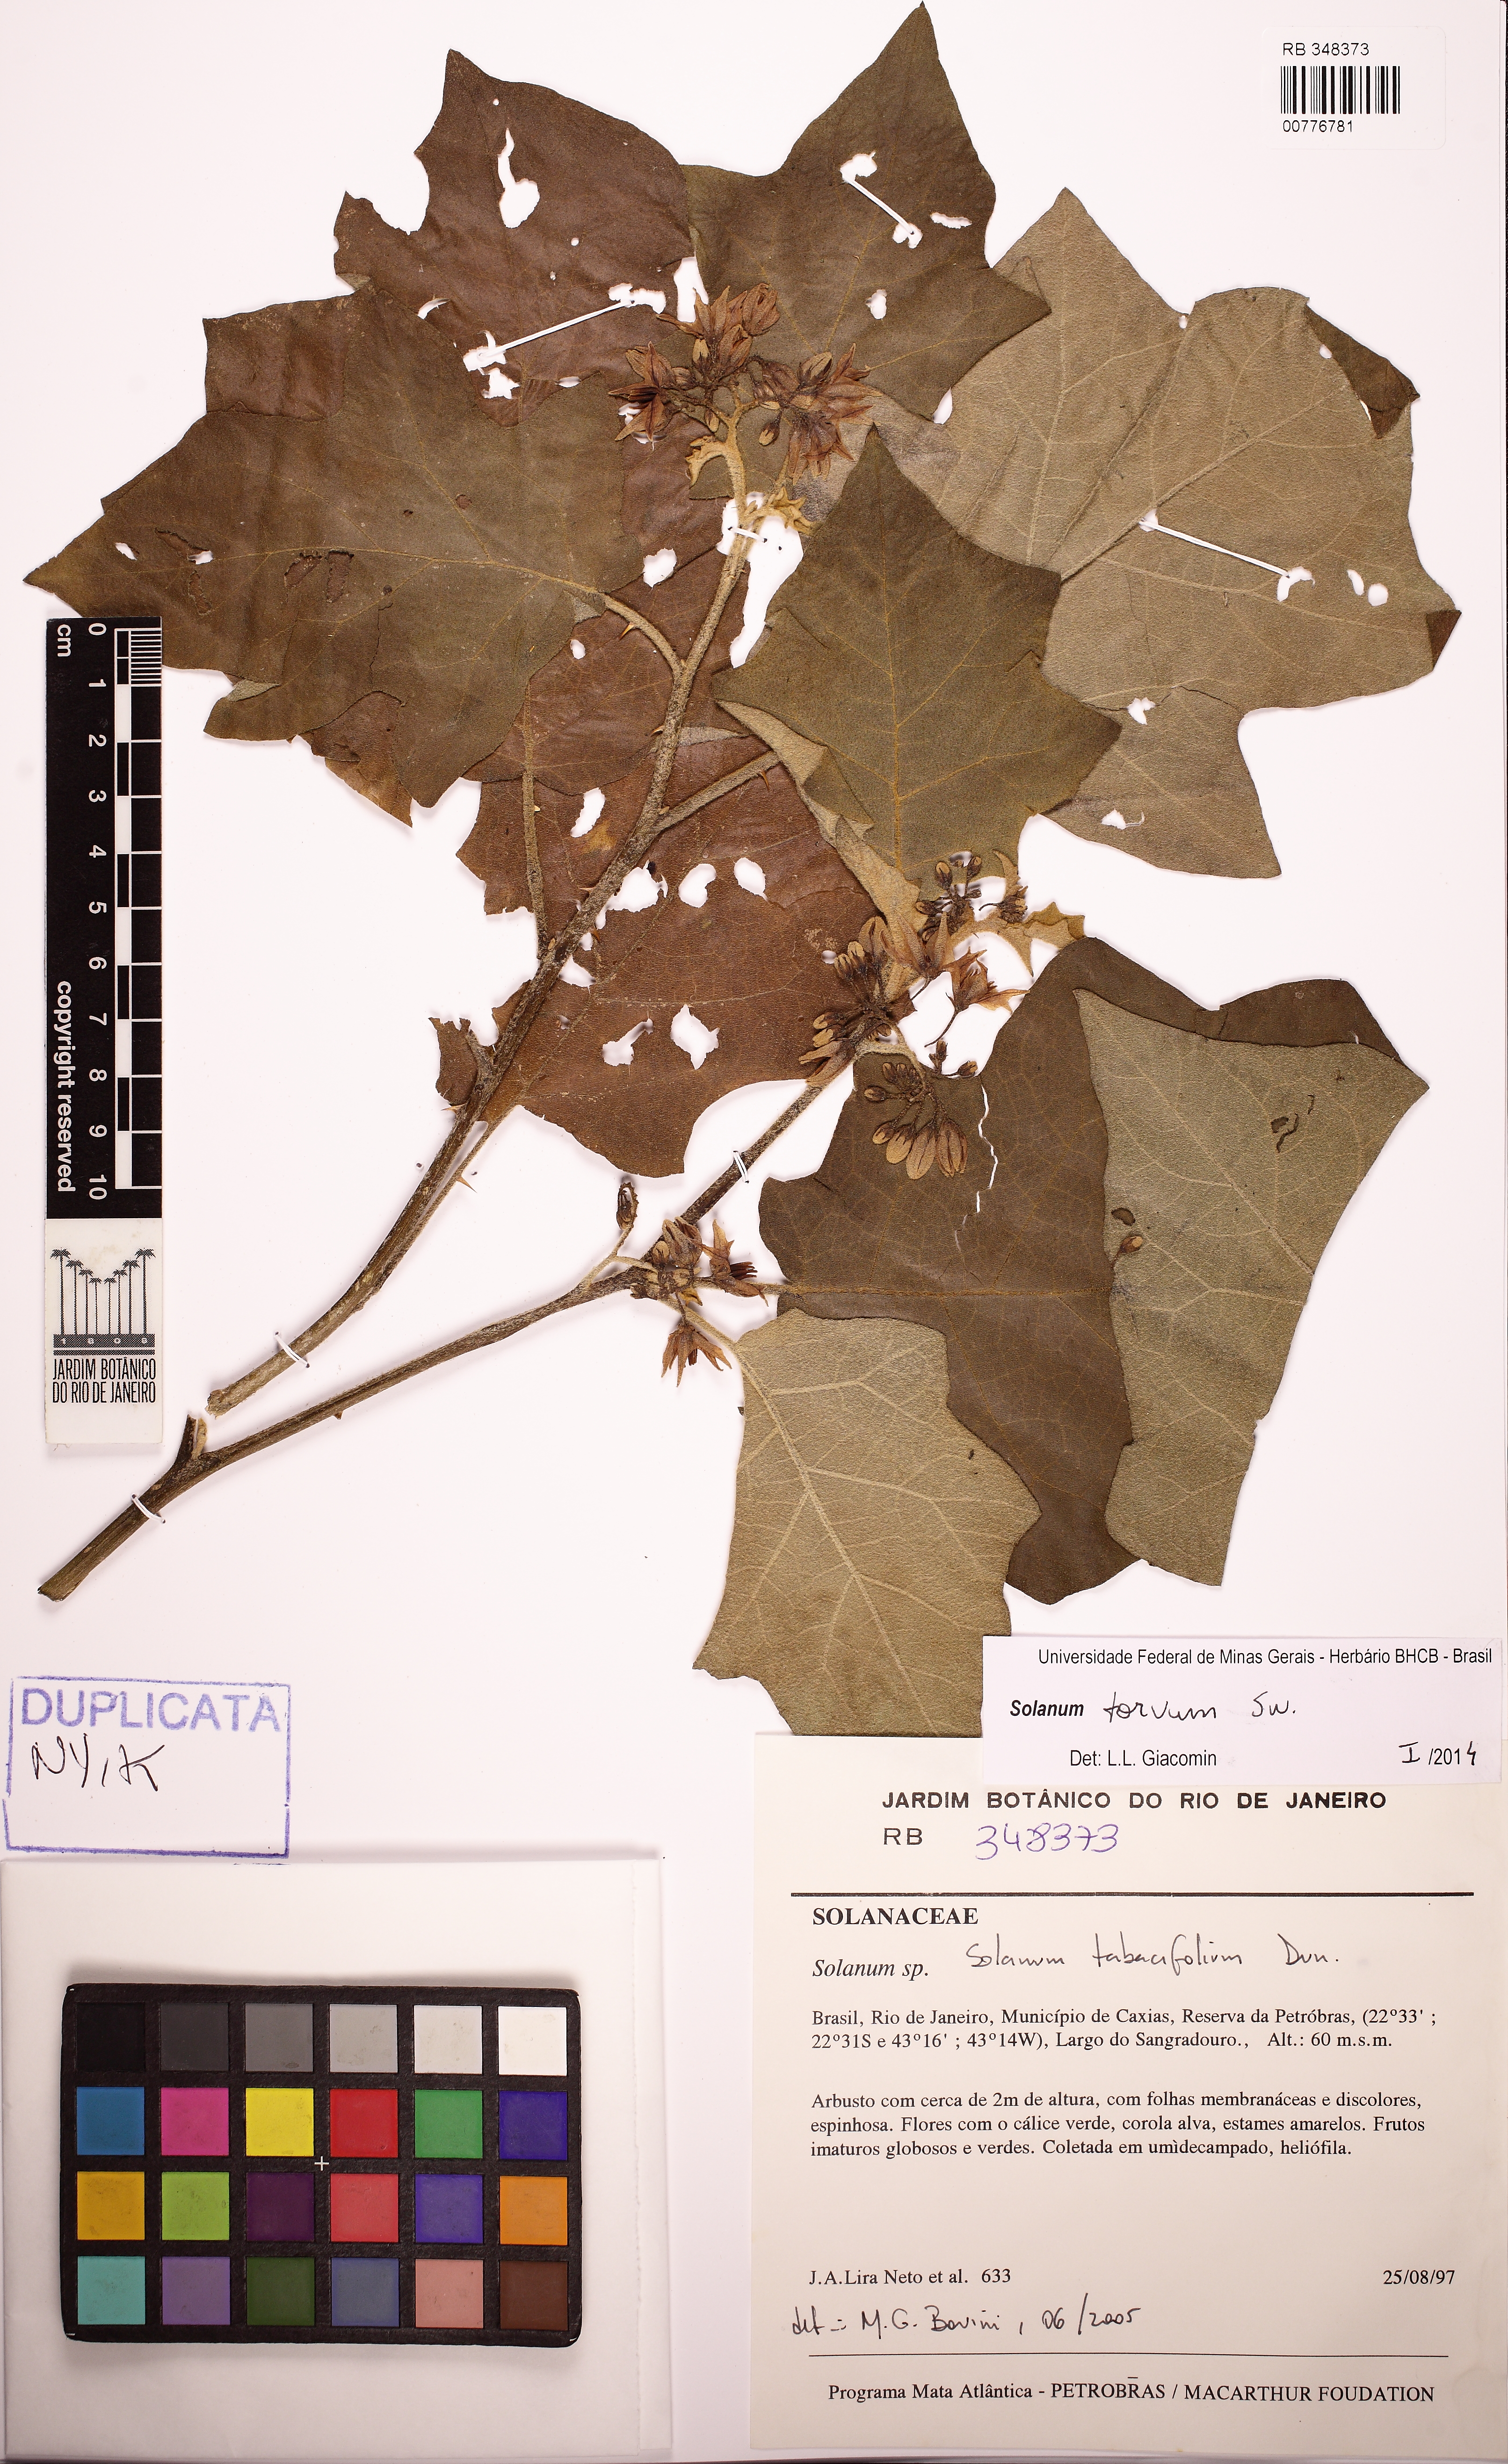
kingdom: Plantae
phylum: Tracheophyta
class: Magnoliopsida
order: Solanales
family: Solanaceae
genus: Solanum
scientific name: Solanum torvum
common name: Turkey berry
